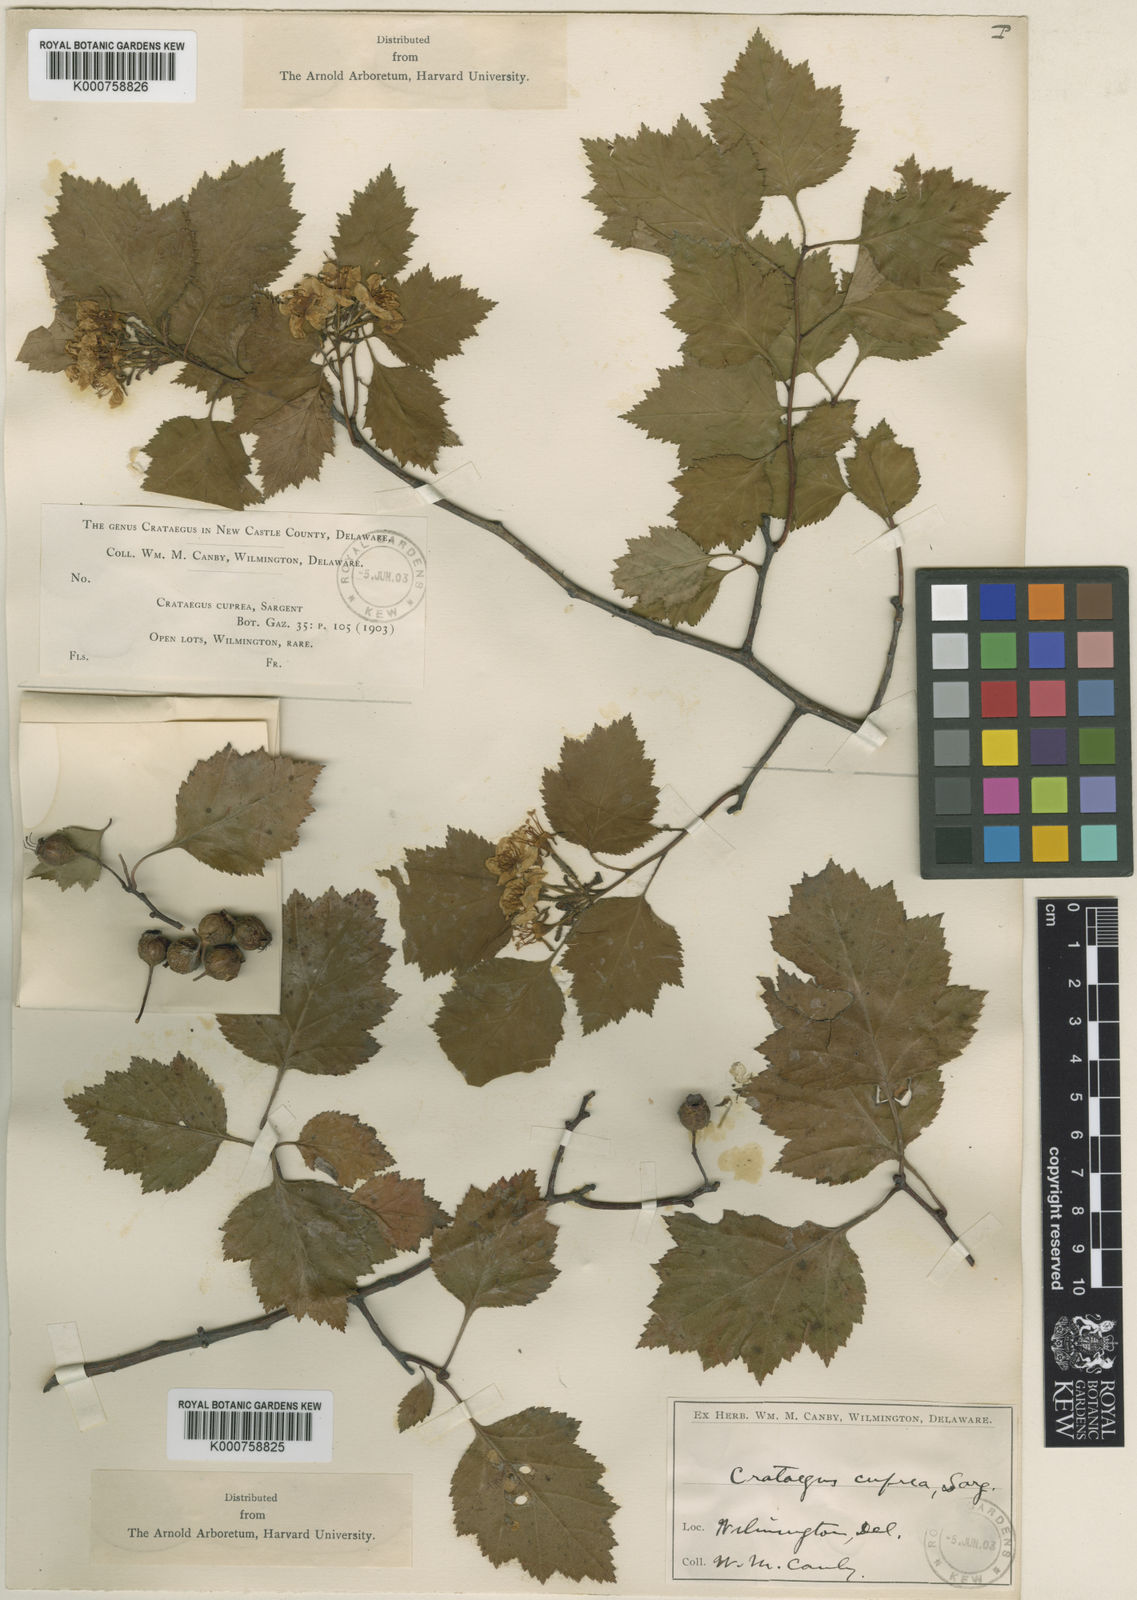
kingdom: Plantae
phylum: Tracheophyta
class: Magnoliopsida
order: Rosales
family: Rosaceae
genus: Crataegus
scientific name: Crataegus cuprea
